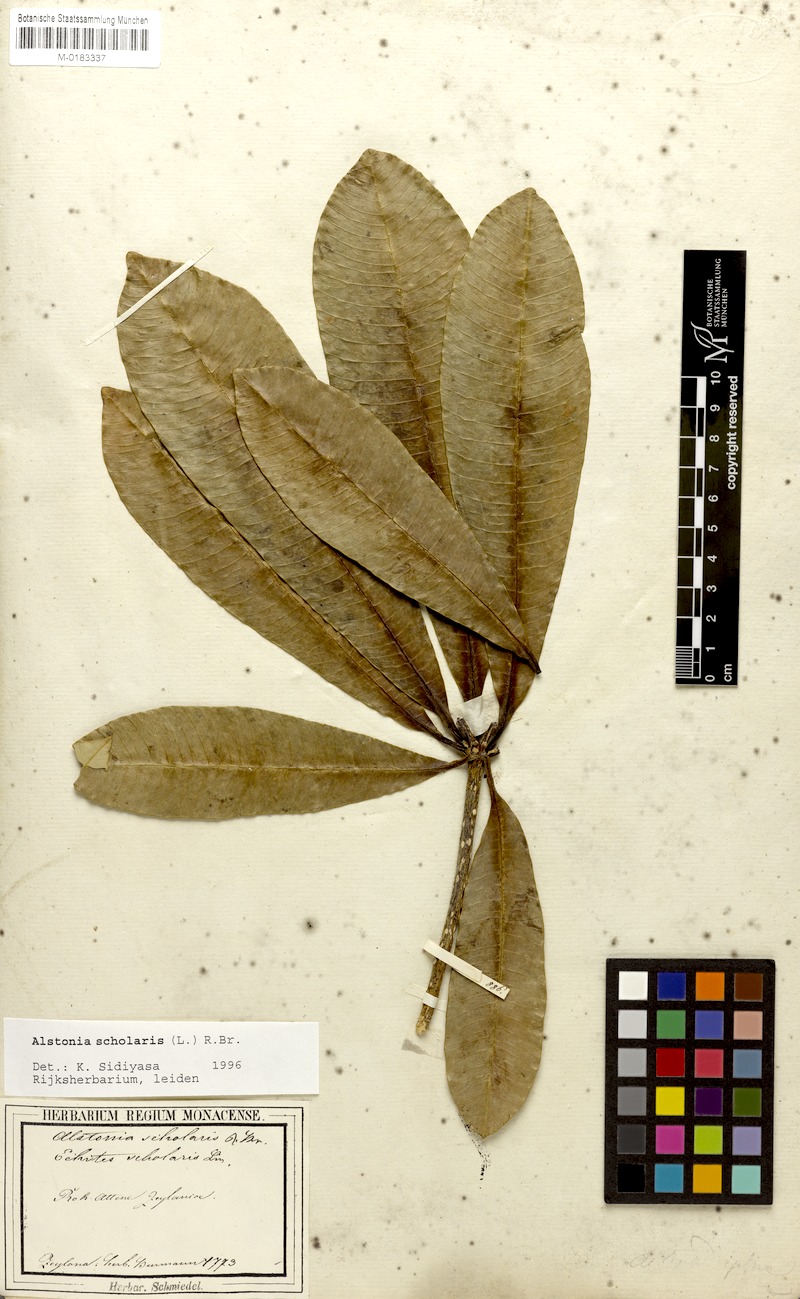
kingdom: Plantae
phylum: Tracheophyta
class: Magnoliopsida
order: Gentianales
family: Apocynaceae
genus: Alstonia
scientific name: Alstonia scholaris
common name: White cheesewood
